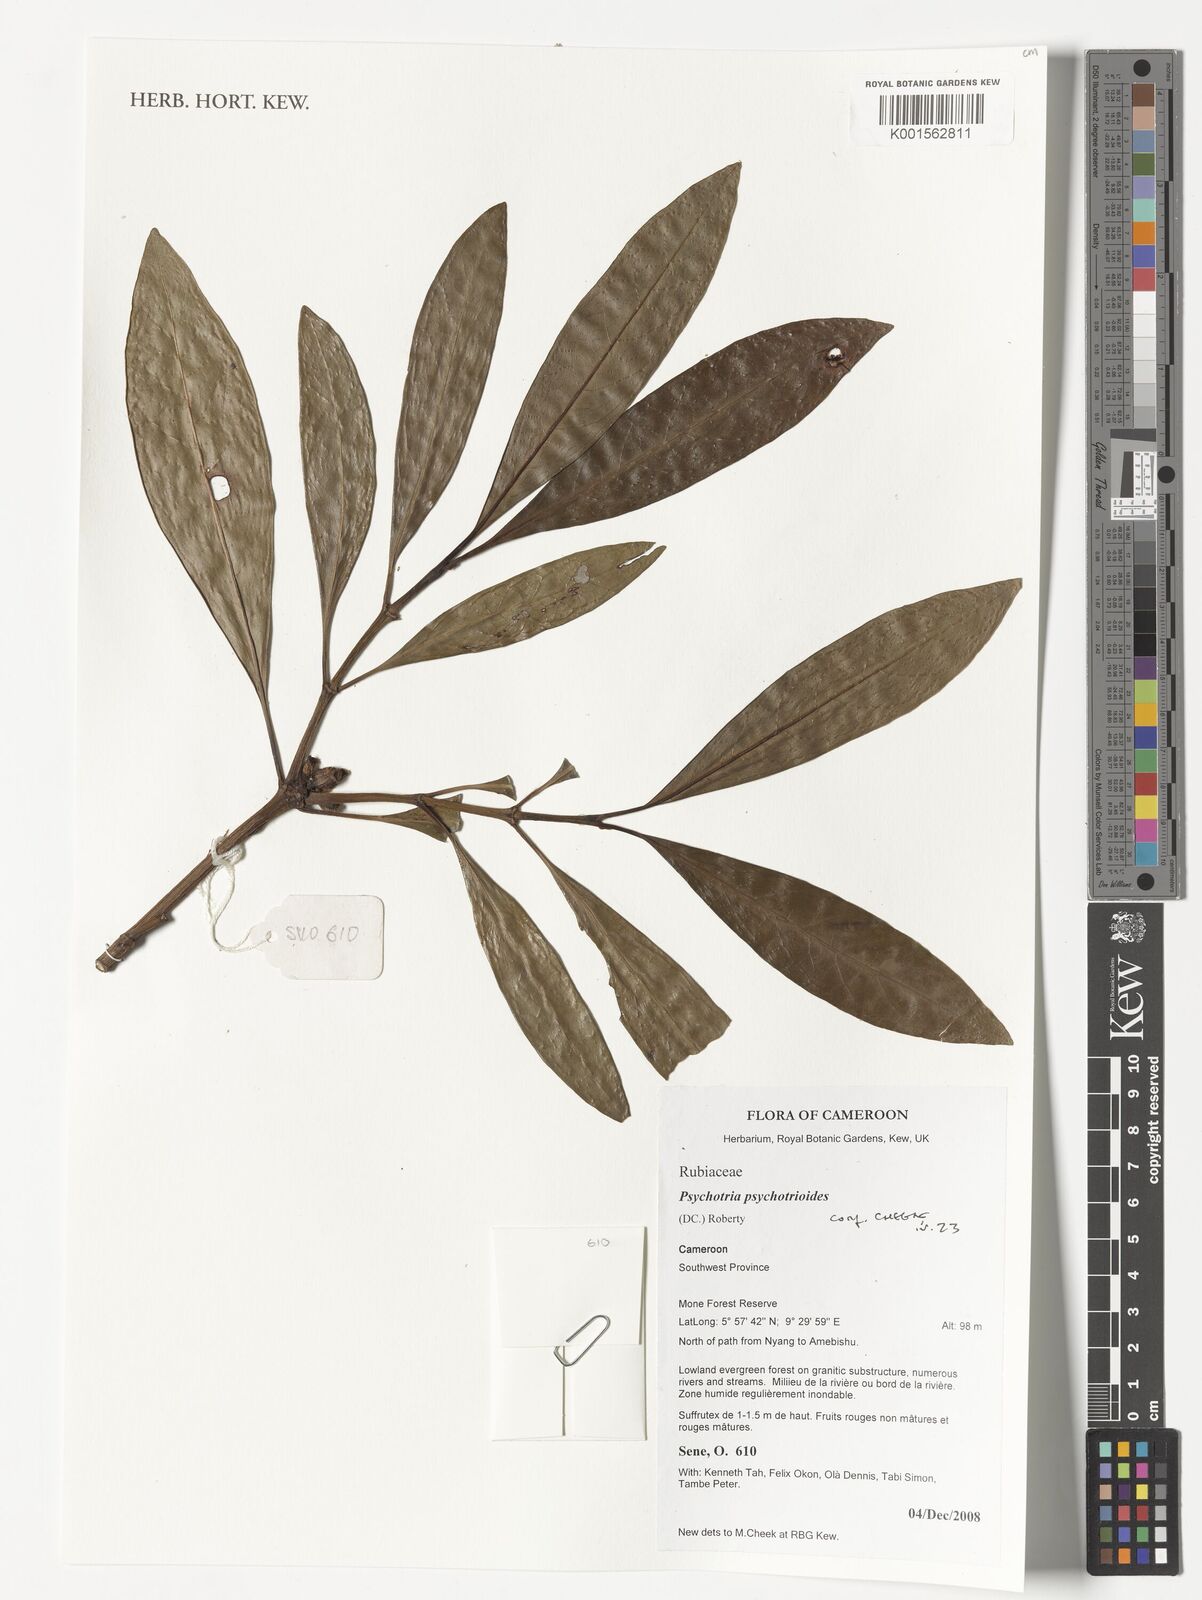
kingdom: Plantae
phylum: Tracheophyta
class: Magnoliopsida
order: Gentianales
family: Rubiaceae
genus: Psychotria
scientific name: Psychotria psychotrioides
